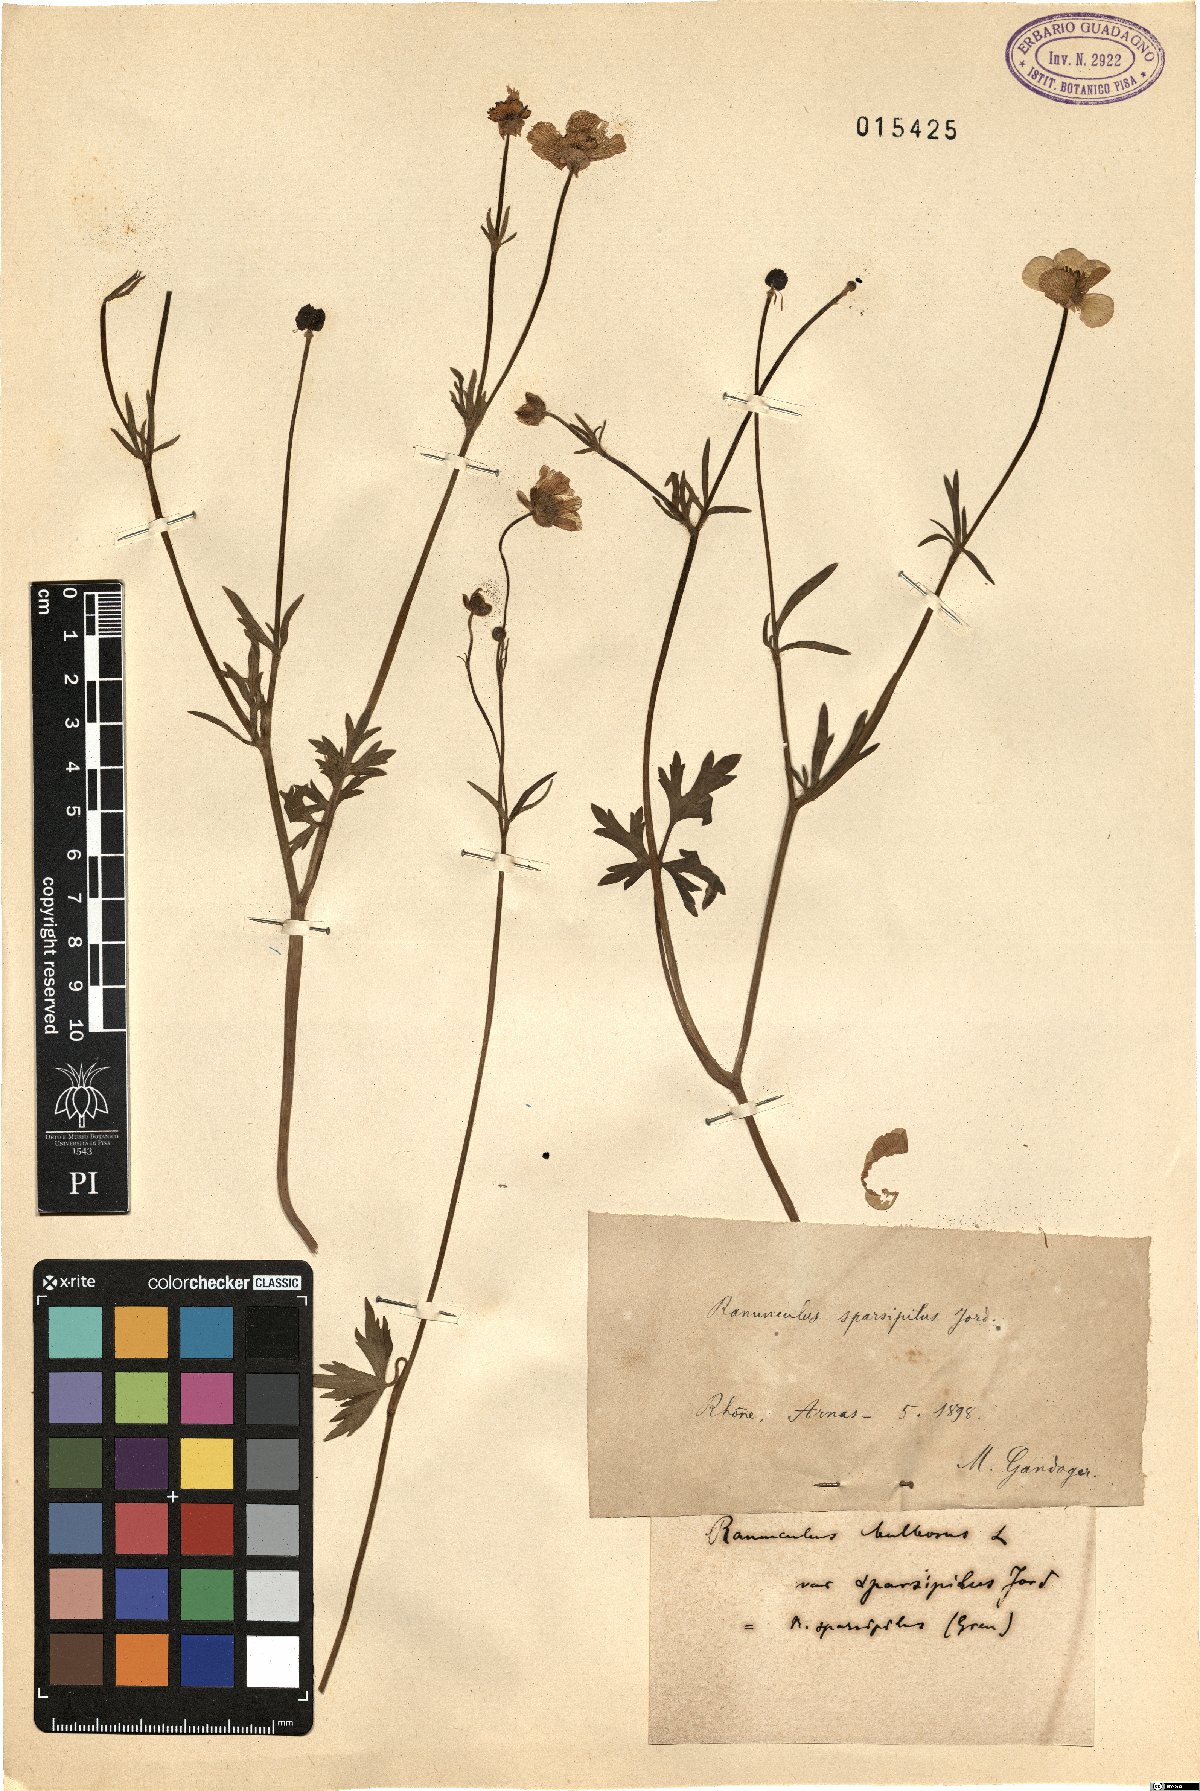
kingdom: Plantae
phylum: Tracheophyta
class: Magnoliopsida
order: Ranunculales
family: Ranunculaceae
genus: Ranunculus
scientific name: Ranunculus bulbosus
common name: Bulbous buttercup
